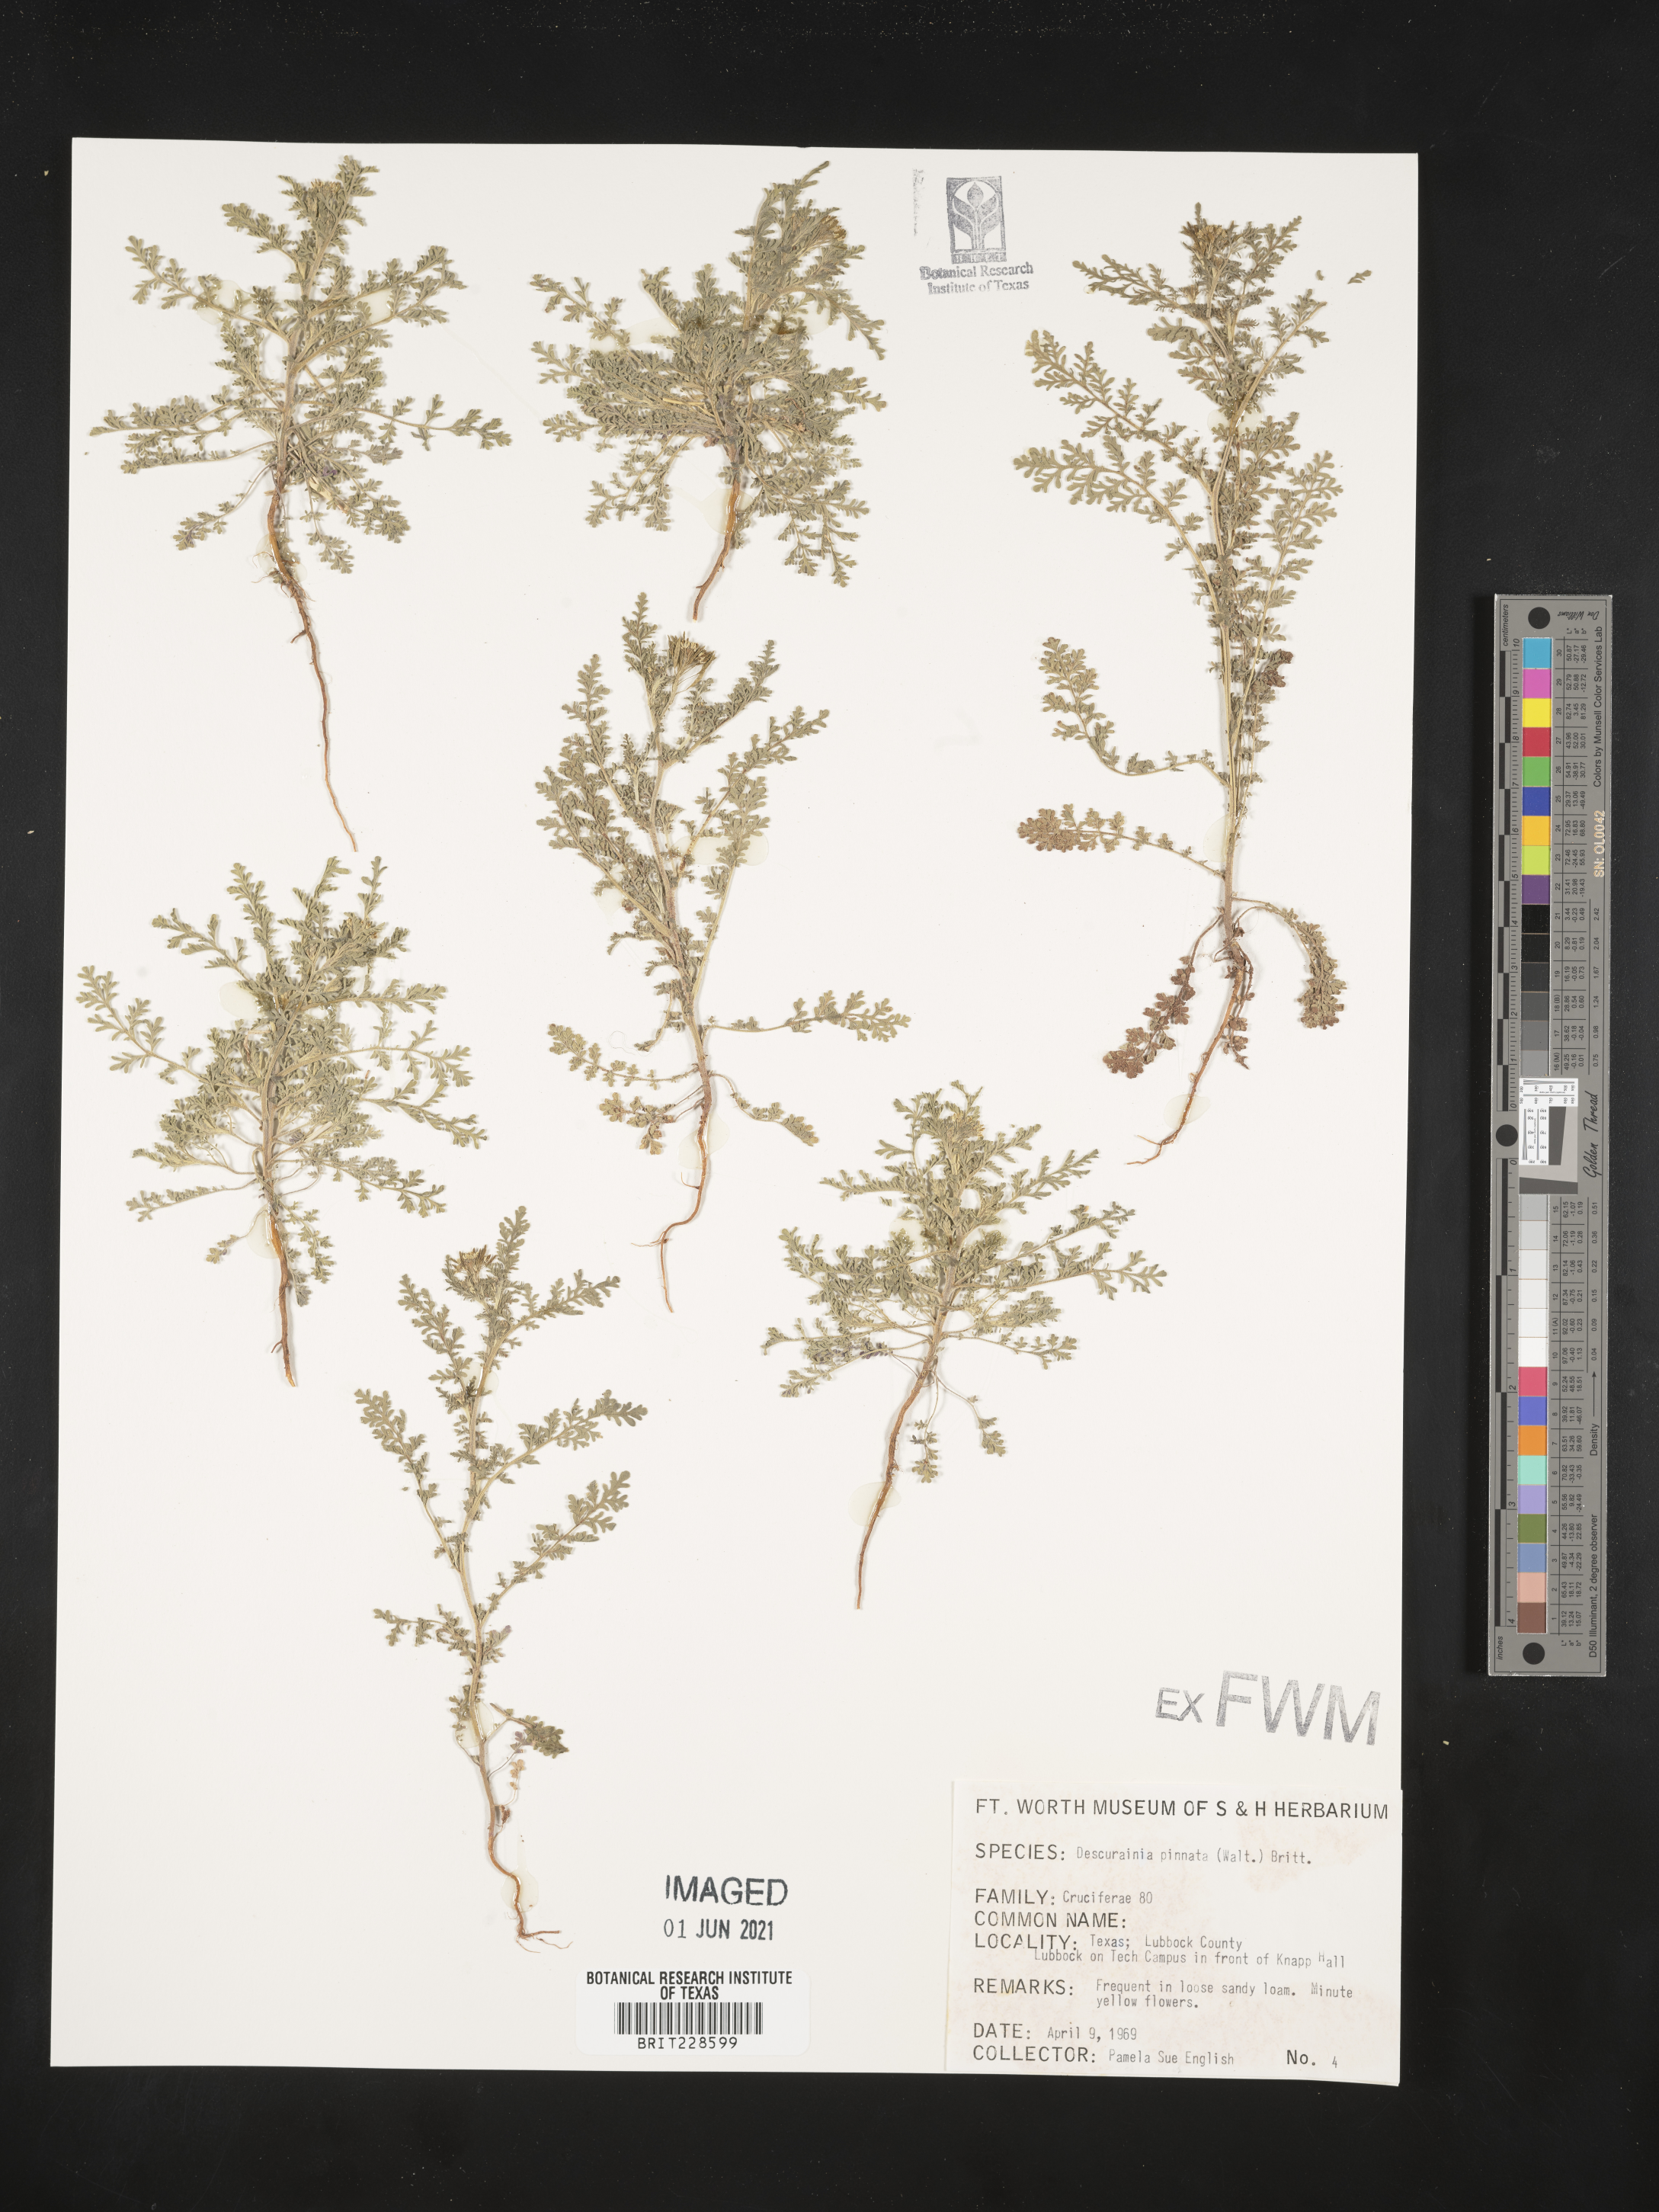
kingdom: Plantae
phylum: Tracheophyta
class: Magnoliopsida
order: Brassicales
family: Brassicaceae
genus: Descurainia
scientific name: Descurainia pinnata
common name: Western tansy mustard
